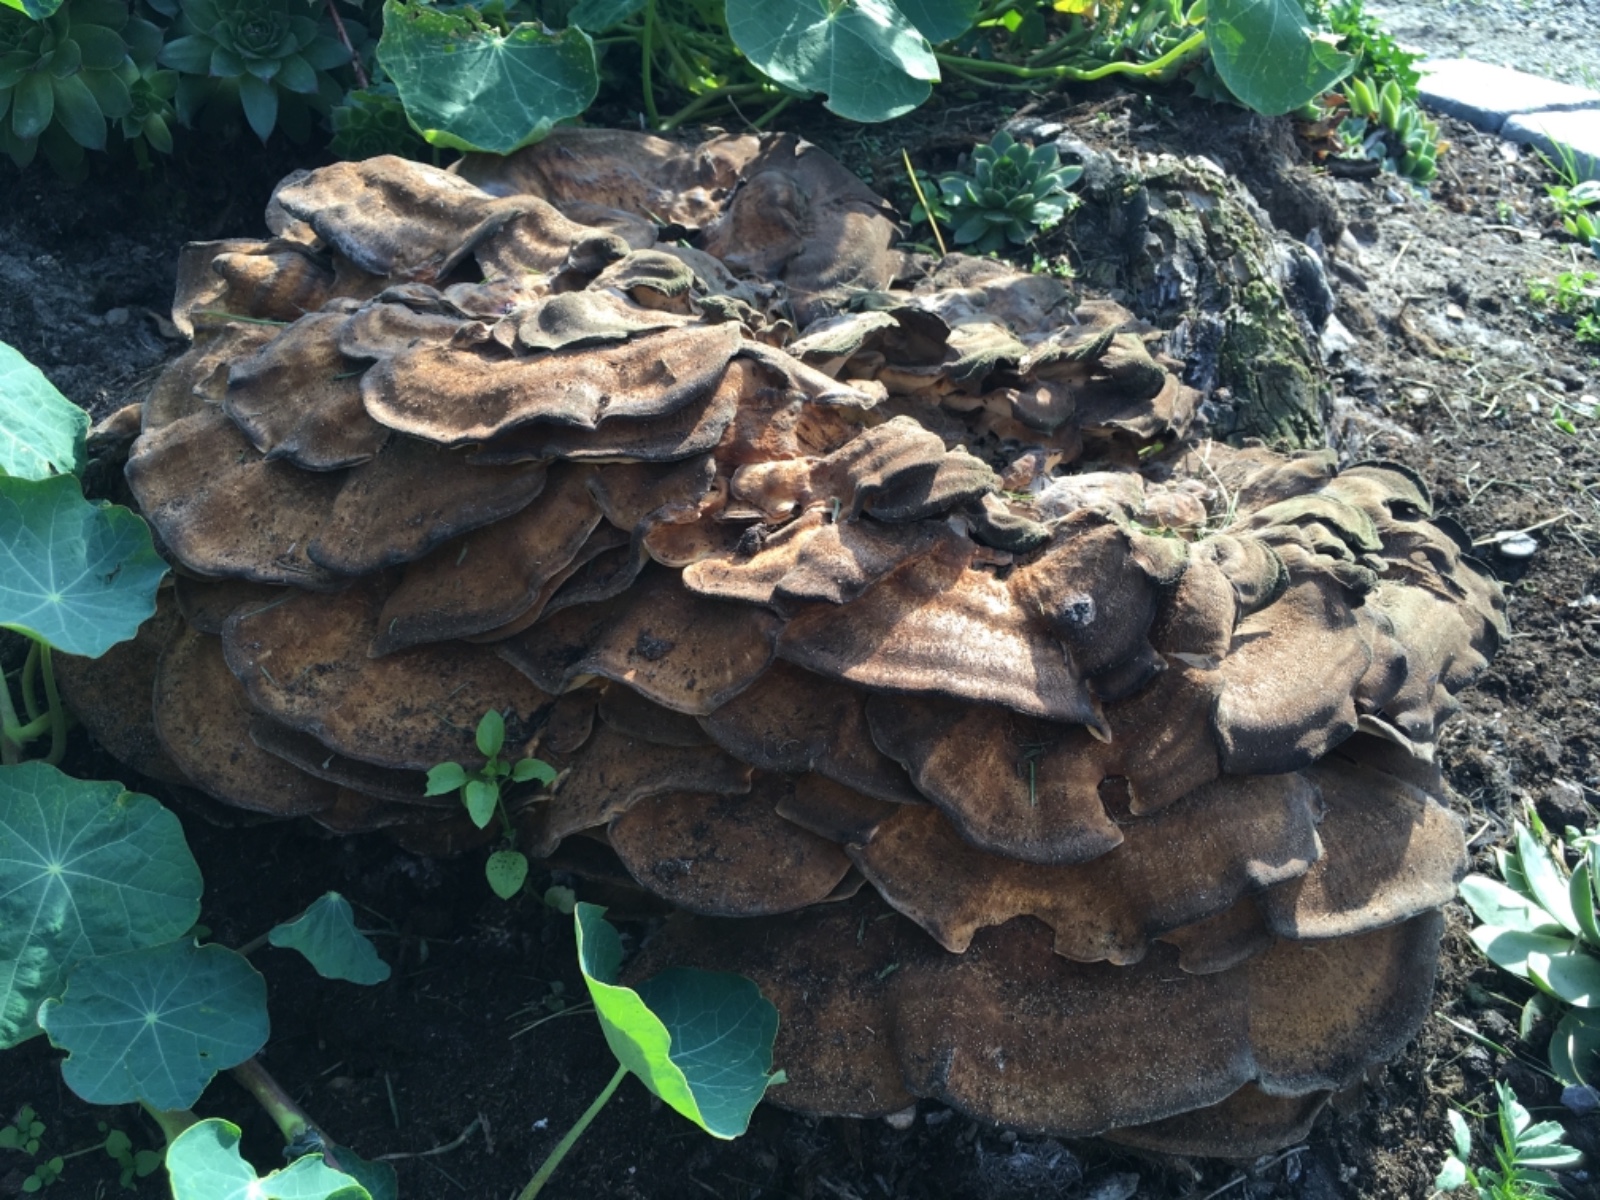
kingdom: Fungi
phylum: Basidiomycota
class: Agaricomycetes
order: Polyporales
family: Meripilaceae
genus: Meripilus
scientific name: Meripilus giganteus
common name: kæmpeporesvamp
